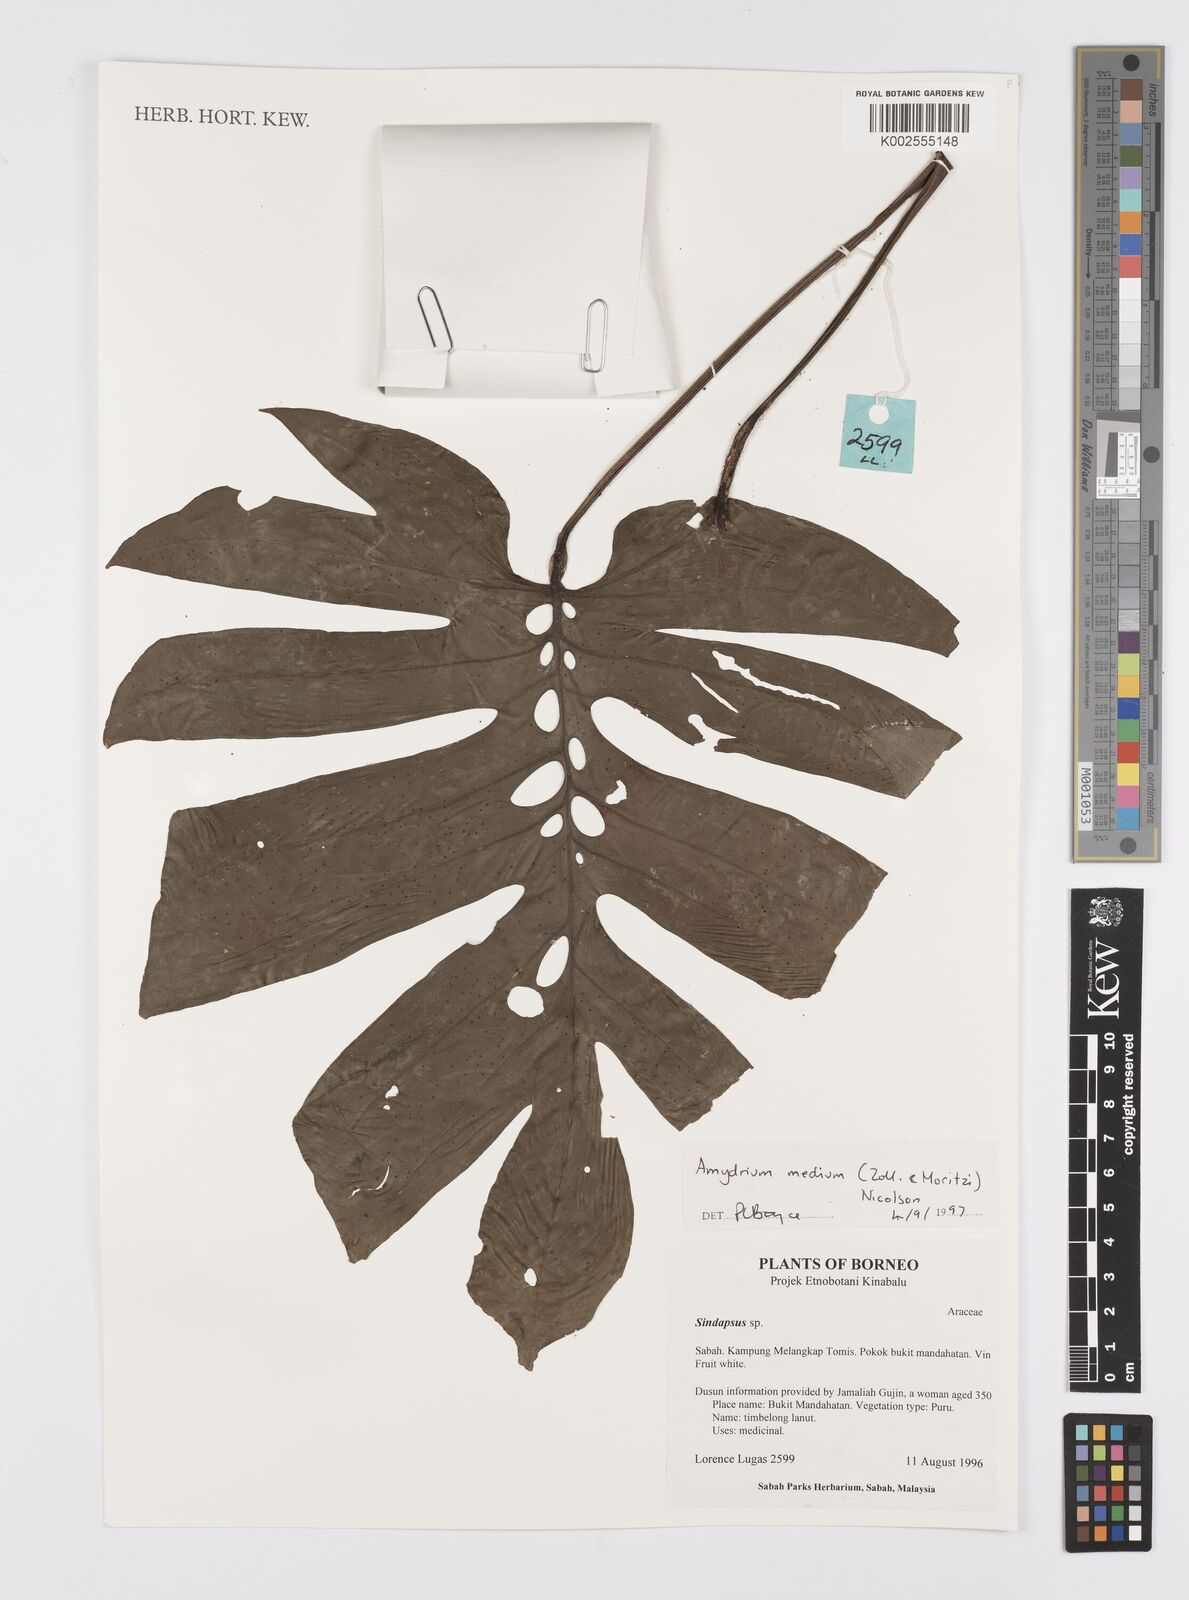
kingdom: Plantae
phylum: Tracheophyta
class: Liliopsida
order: Alismatales
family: Araceae
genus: Amydrium
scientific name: Amydrium medium
